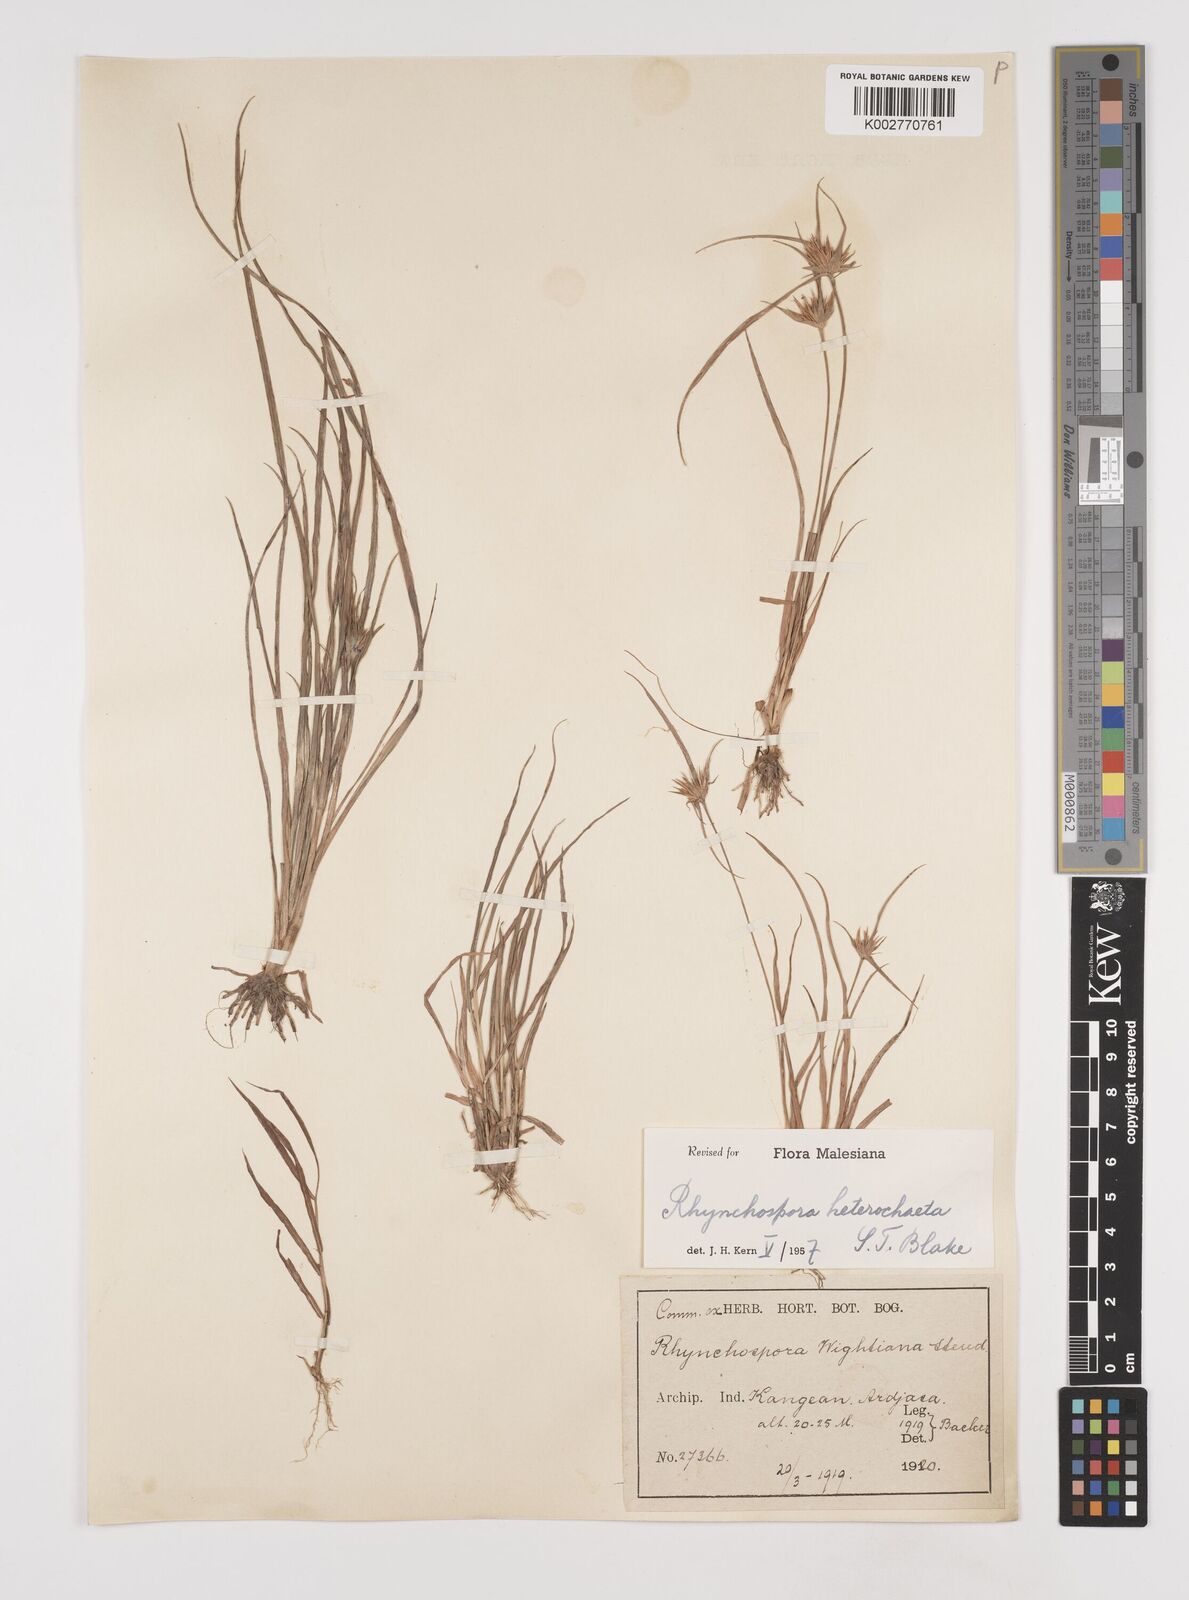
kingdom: Plantae
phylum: Tracheophyta
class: Liliopsida
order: Poales
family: Cyperaceae
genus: Rhynchospora
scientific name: Rhynchospora wightiana
